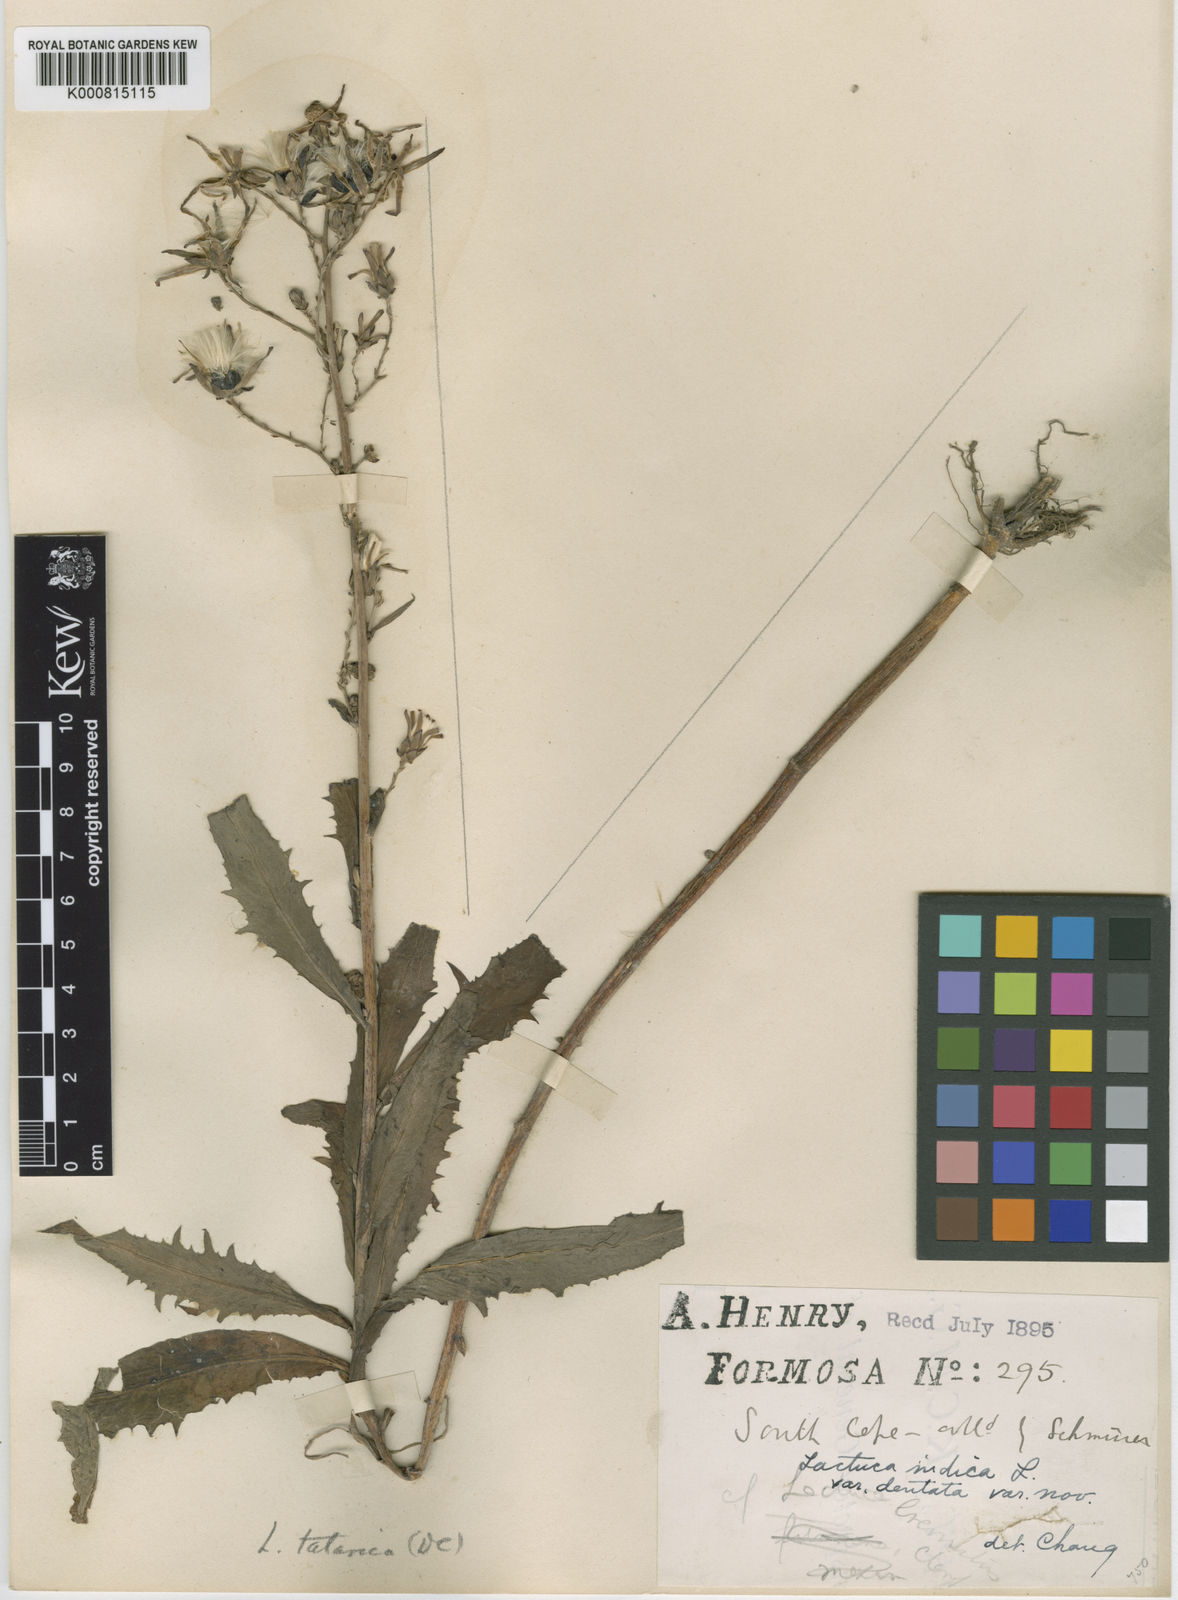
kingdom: Plantae
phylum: Tracheophyta
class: Magnoliopsida
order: Asterales
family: Asteraceae
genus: Lactuca
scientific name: Lactuca indica
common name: Wild lettuce
